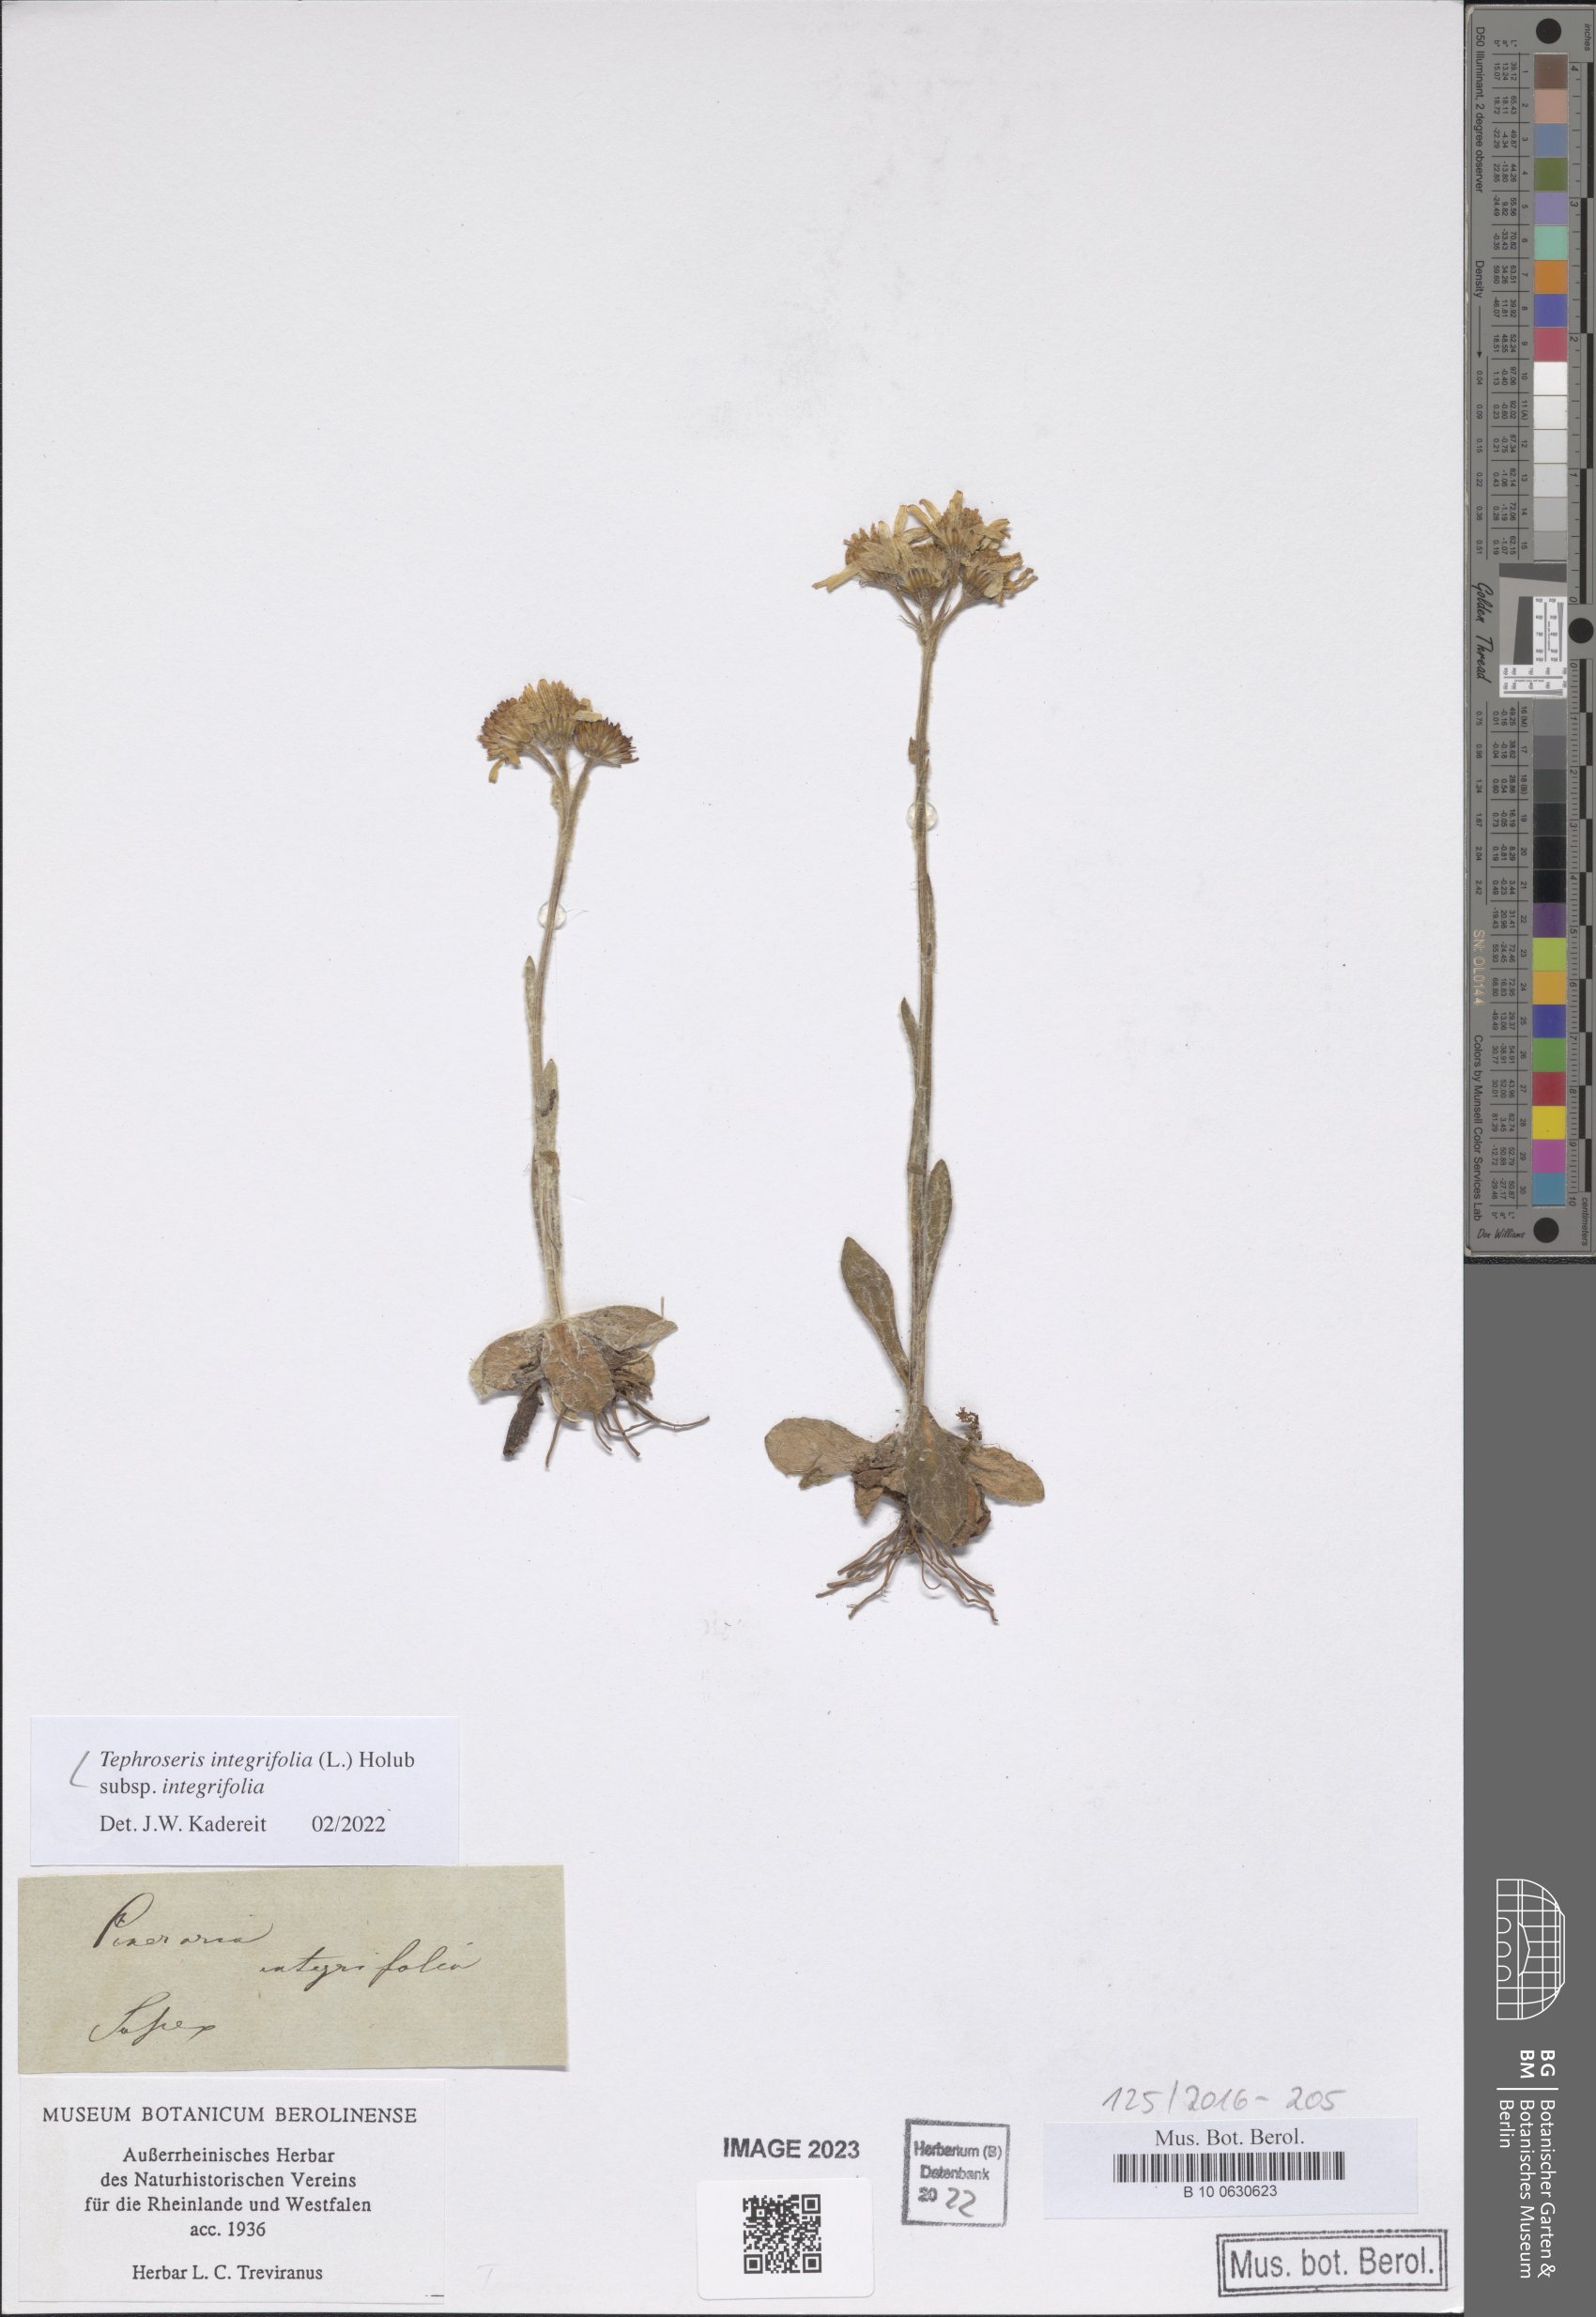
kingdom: Plantae
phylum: Tracheophyta
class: Magnoliopsida
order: Asterales
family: Asteraceae
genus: Tephroseris
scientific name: Tephroseris integrifolia
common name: Field fleawort
